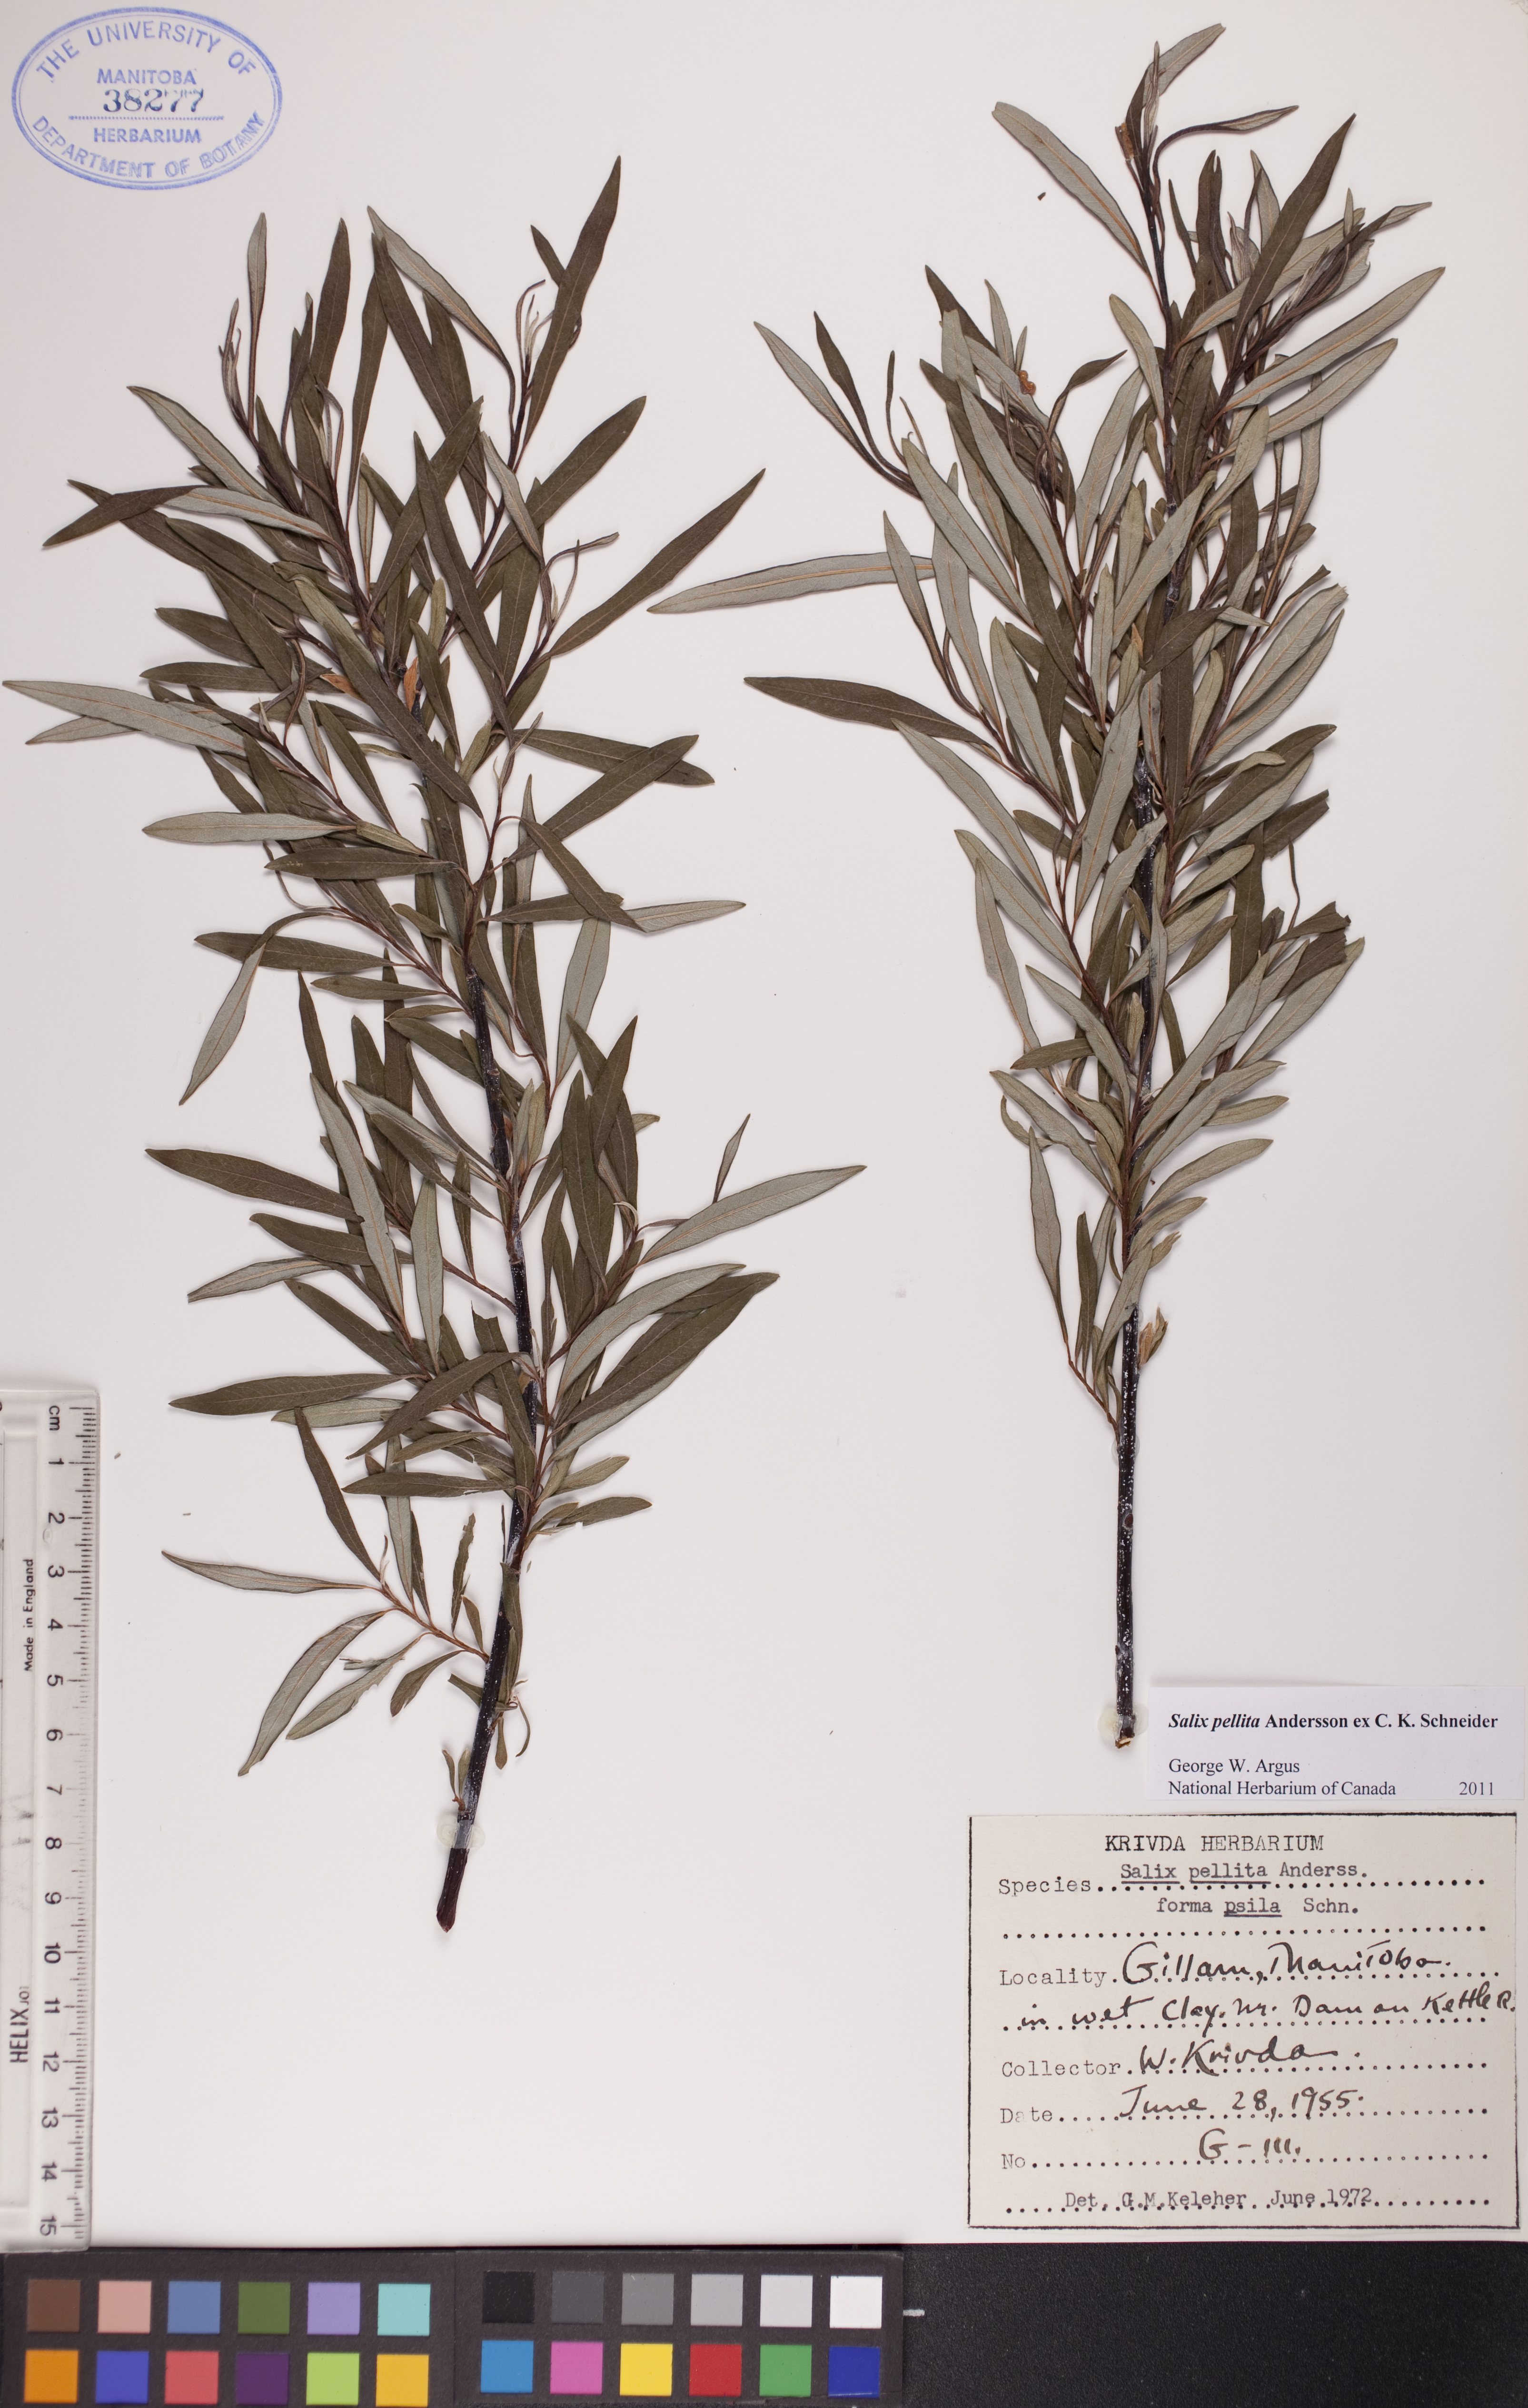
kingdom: Plantae
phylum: Tracheophyta
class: Magnoliopsida
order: Malpighiales
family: Salicaceae
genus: Salix
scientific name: Salix pellita
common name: Satiny willow
